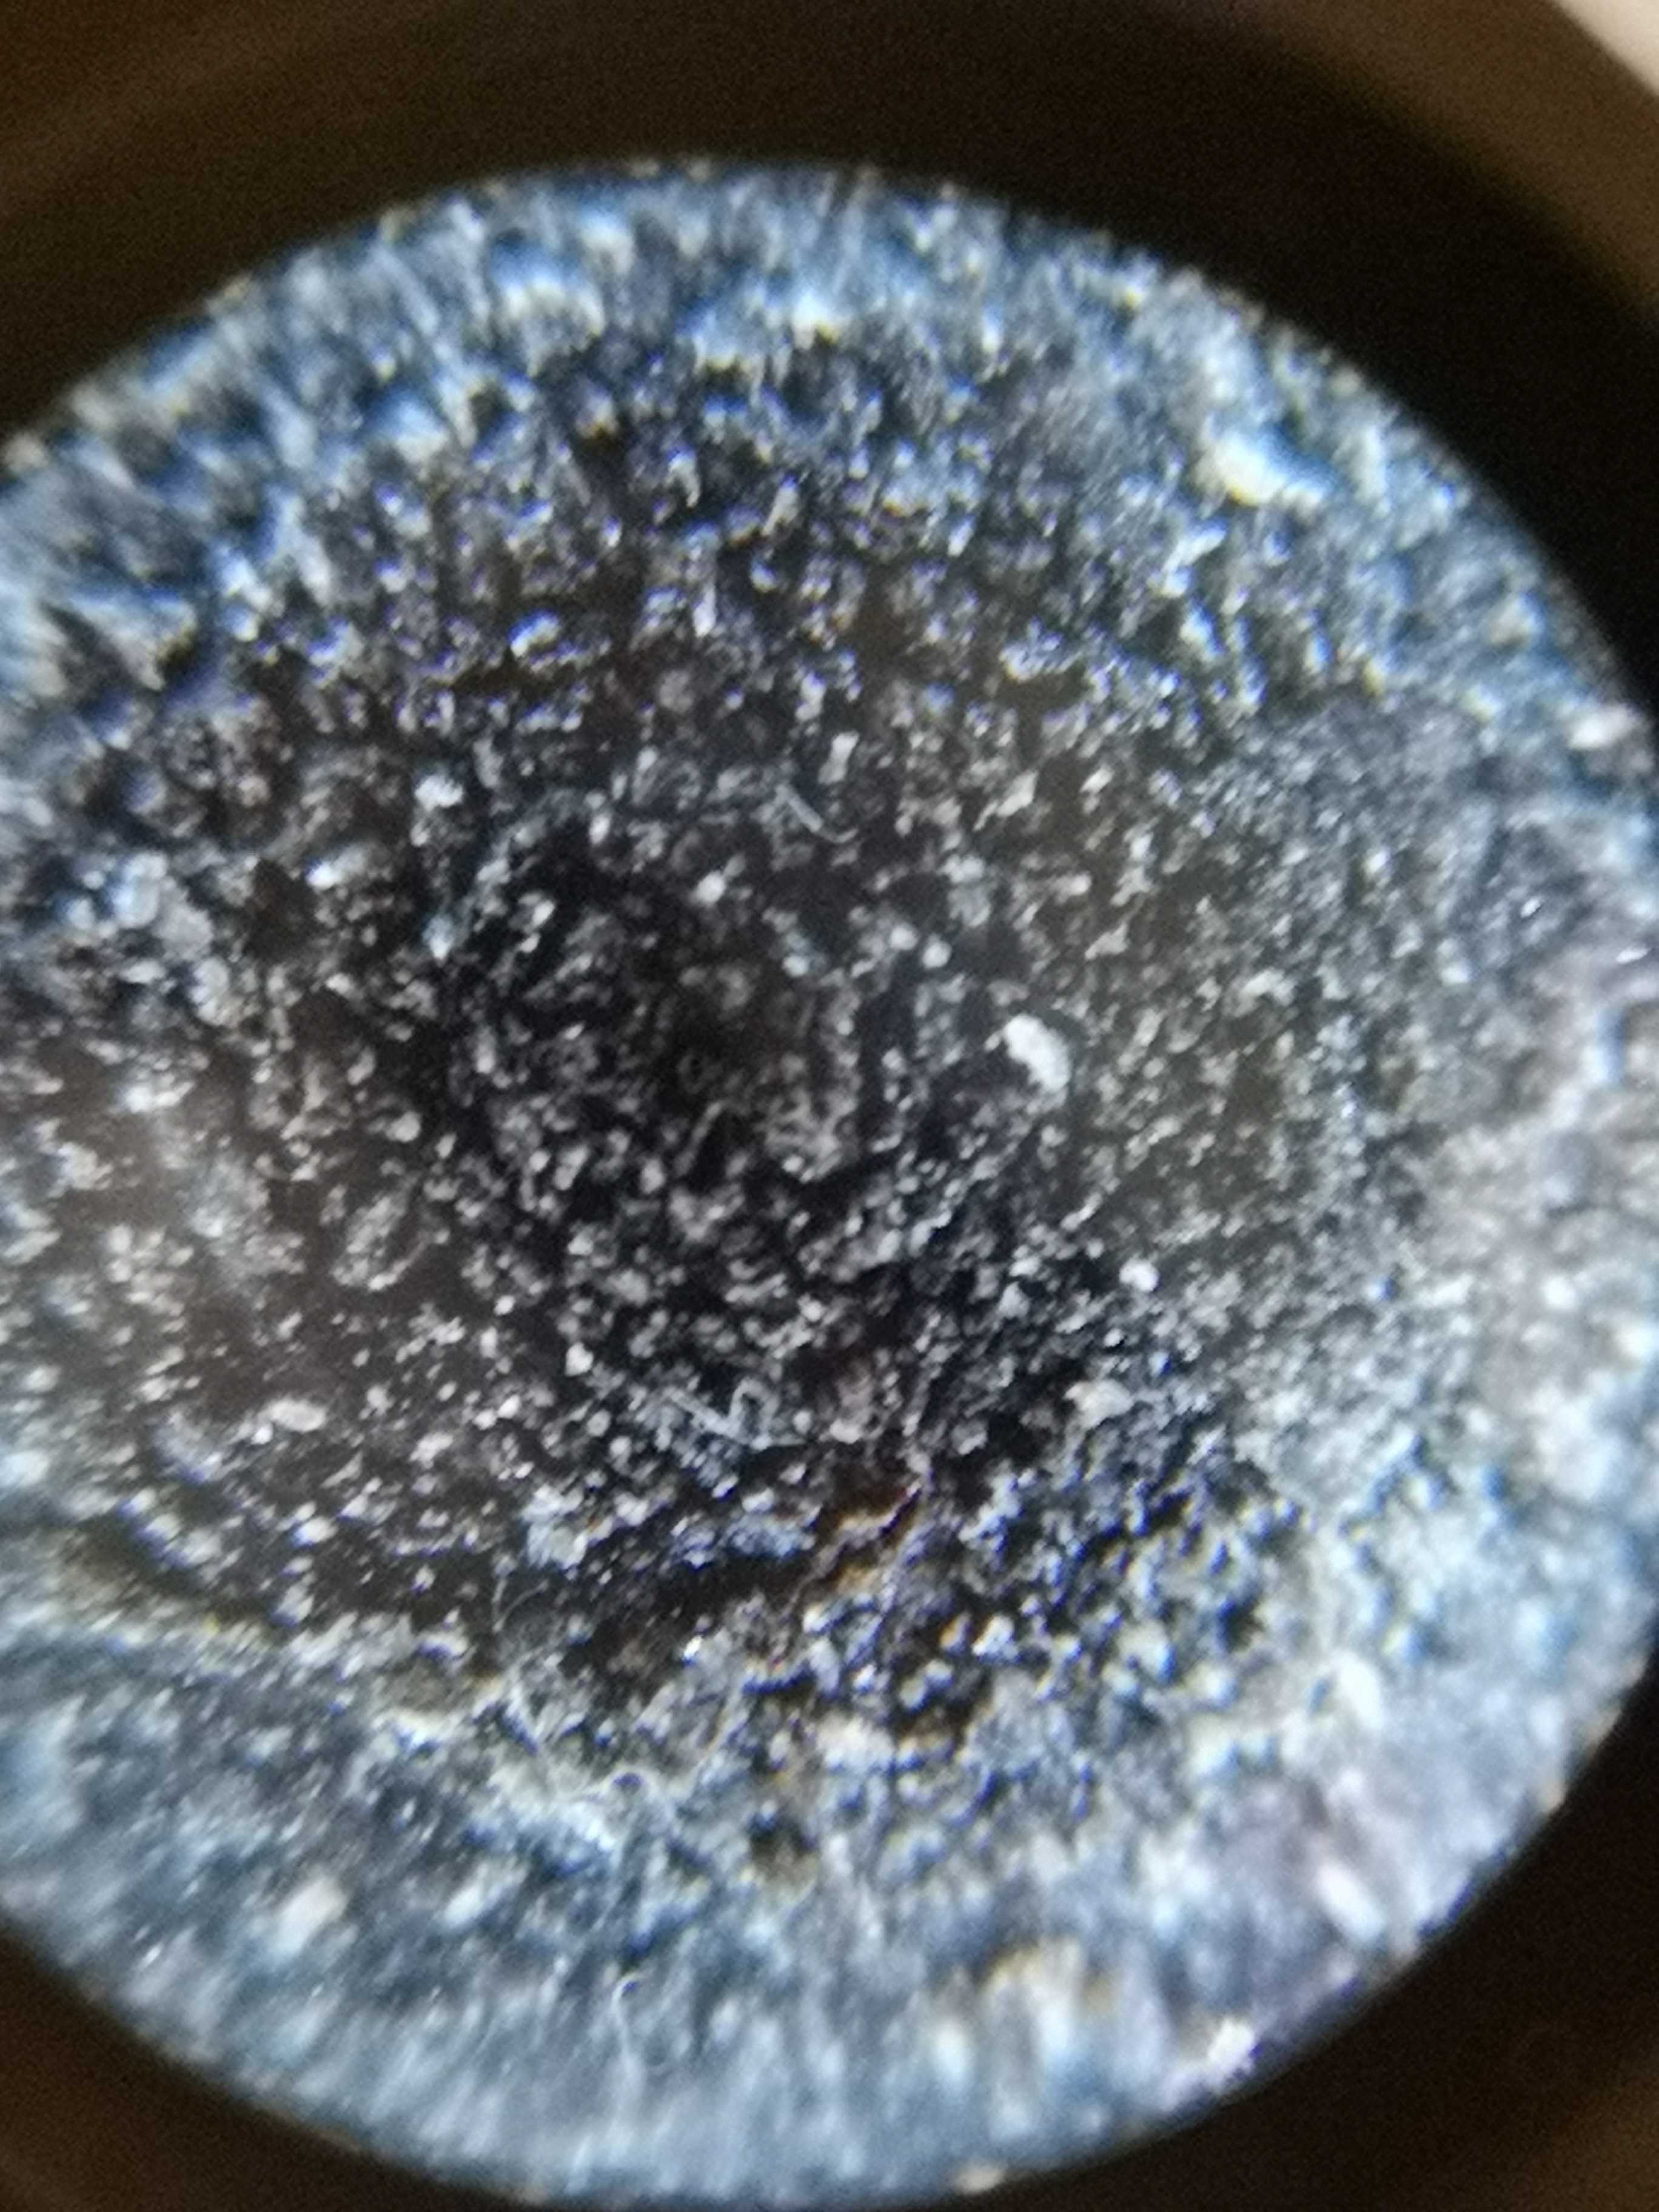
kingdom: Fungi
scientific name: Fungi
